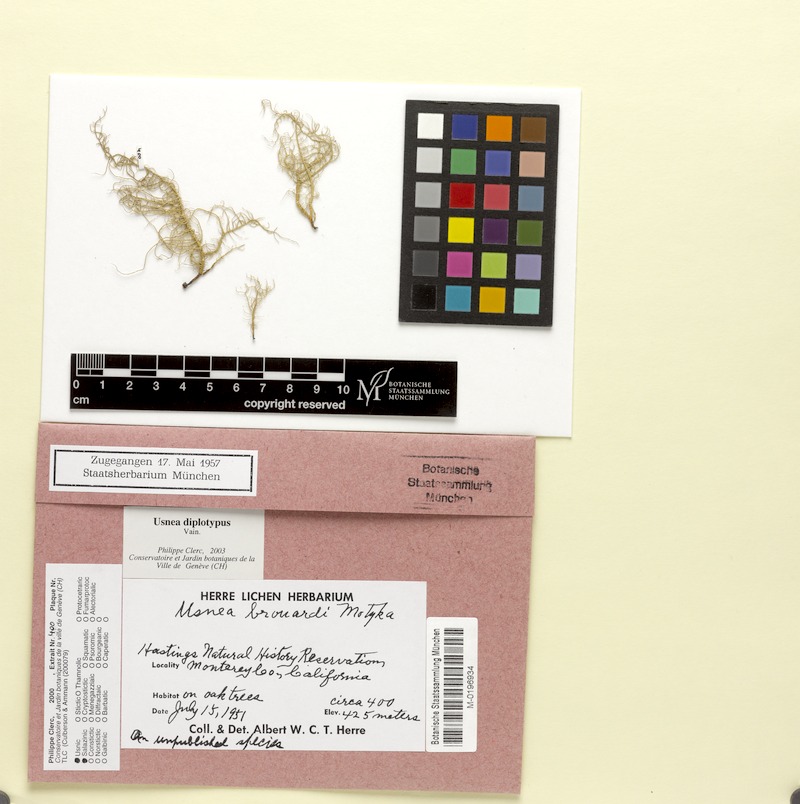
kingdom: Fungi
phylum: Ascomycota
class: Lecanoromycetes
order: Lecanorales
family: Parmeliaceae
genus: Usnea
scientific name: Usnea diplotypus
